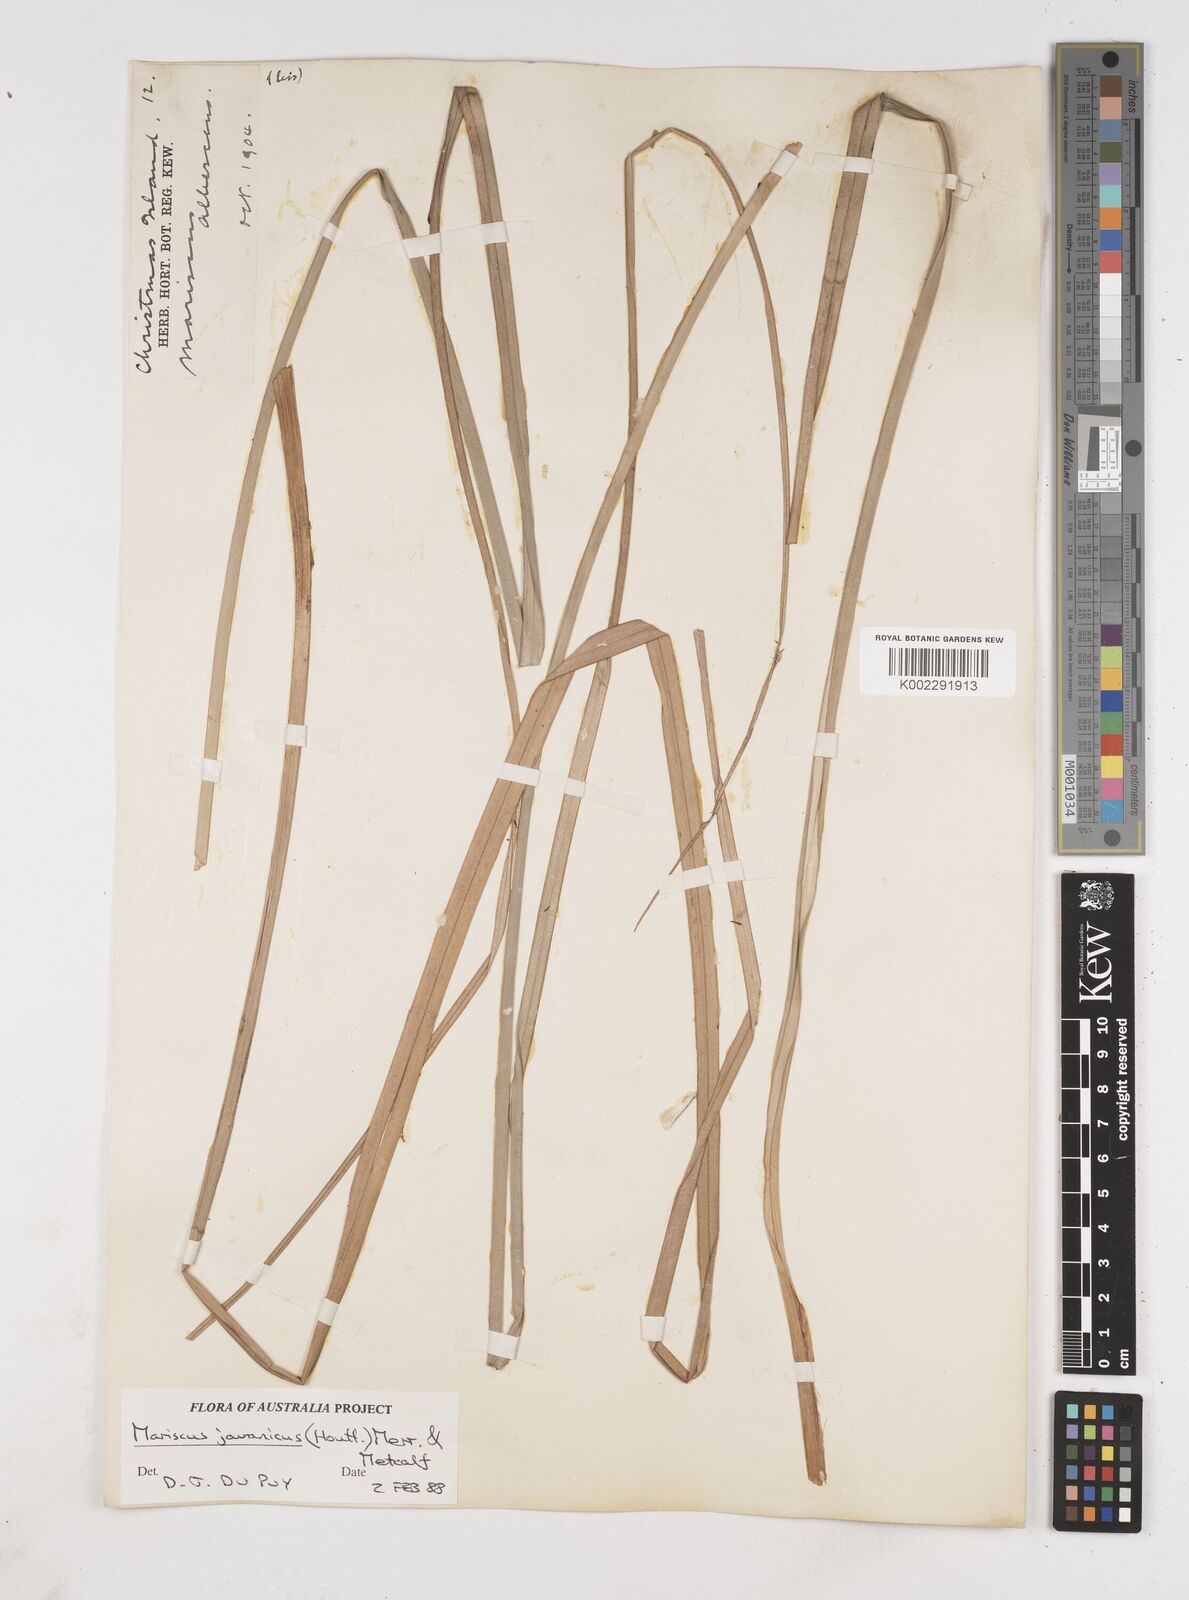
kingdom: Plantae
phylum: Tracheophyta
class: Liliopsida
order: Poales
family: Cyperaceae
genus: Cyperus
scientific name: Cyperus javanicus
